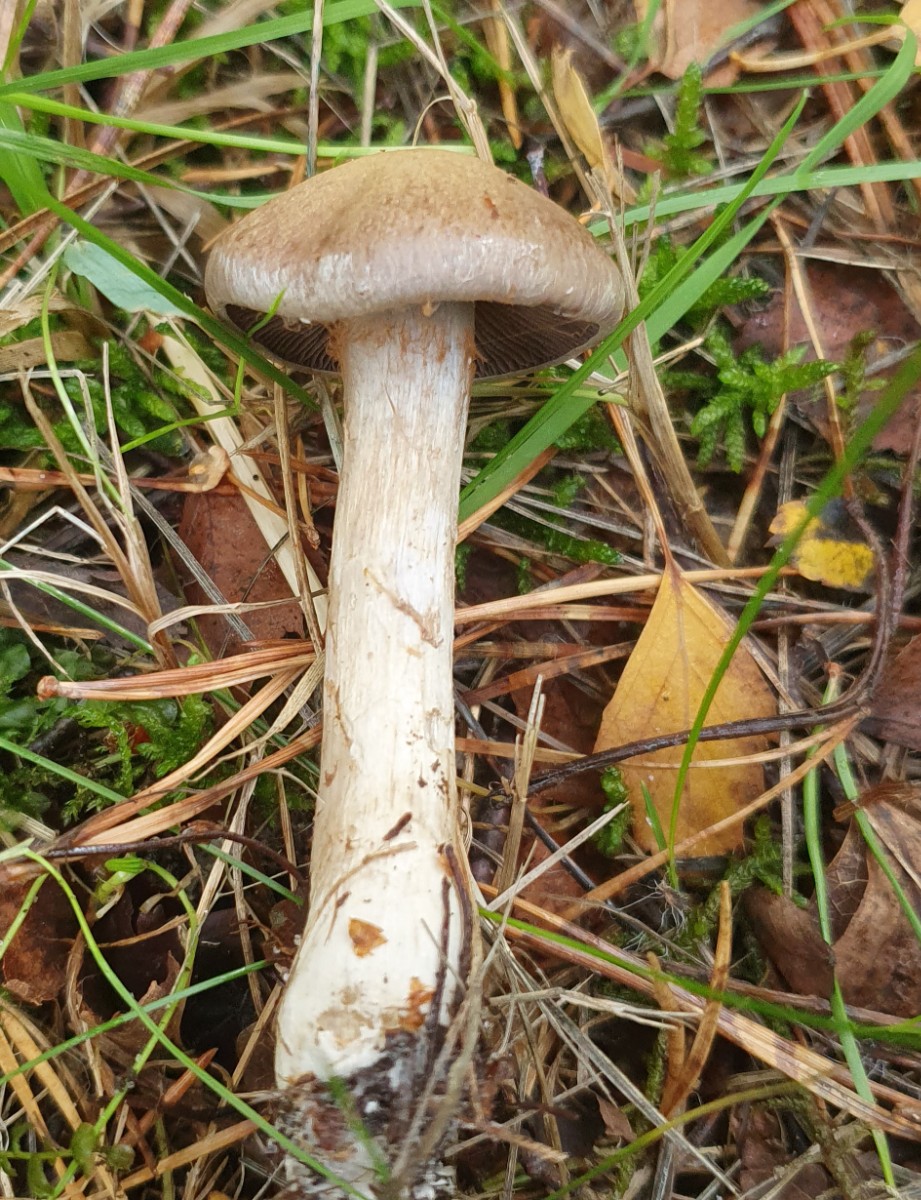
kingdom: Fungi
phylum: Basidiomycota
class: Agaricomycetes
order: Agaricales
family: Cortinariaceae
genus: Cortinarius
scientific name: Cortinarius
